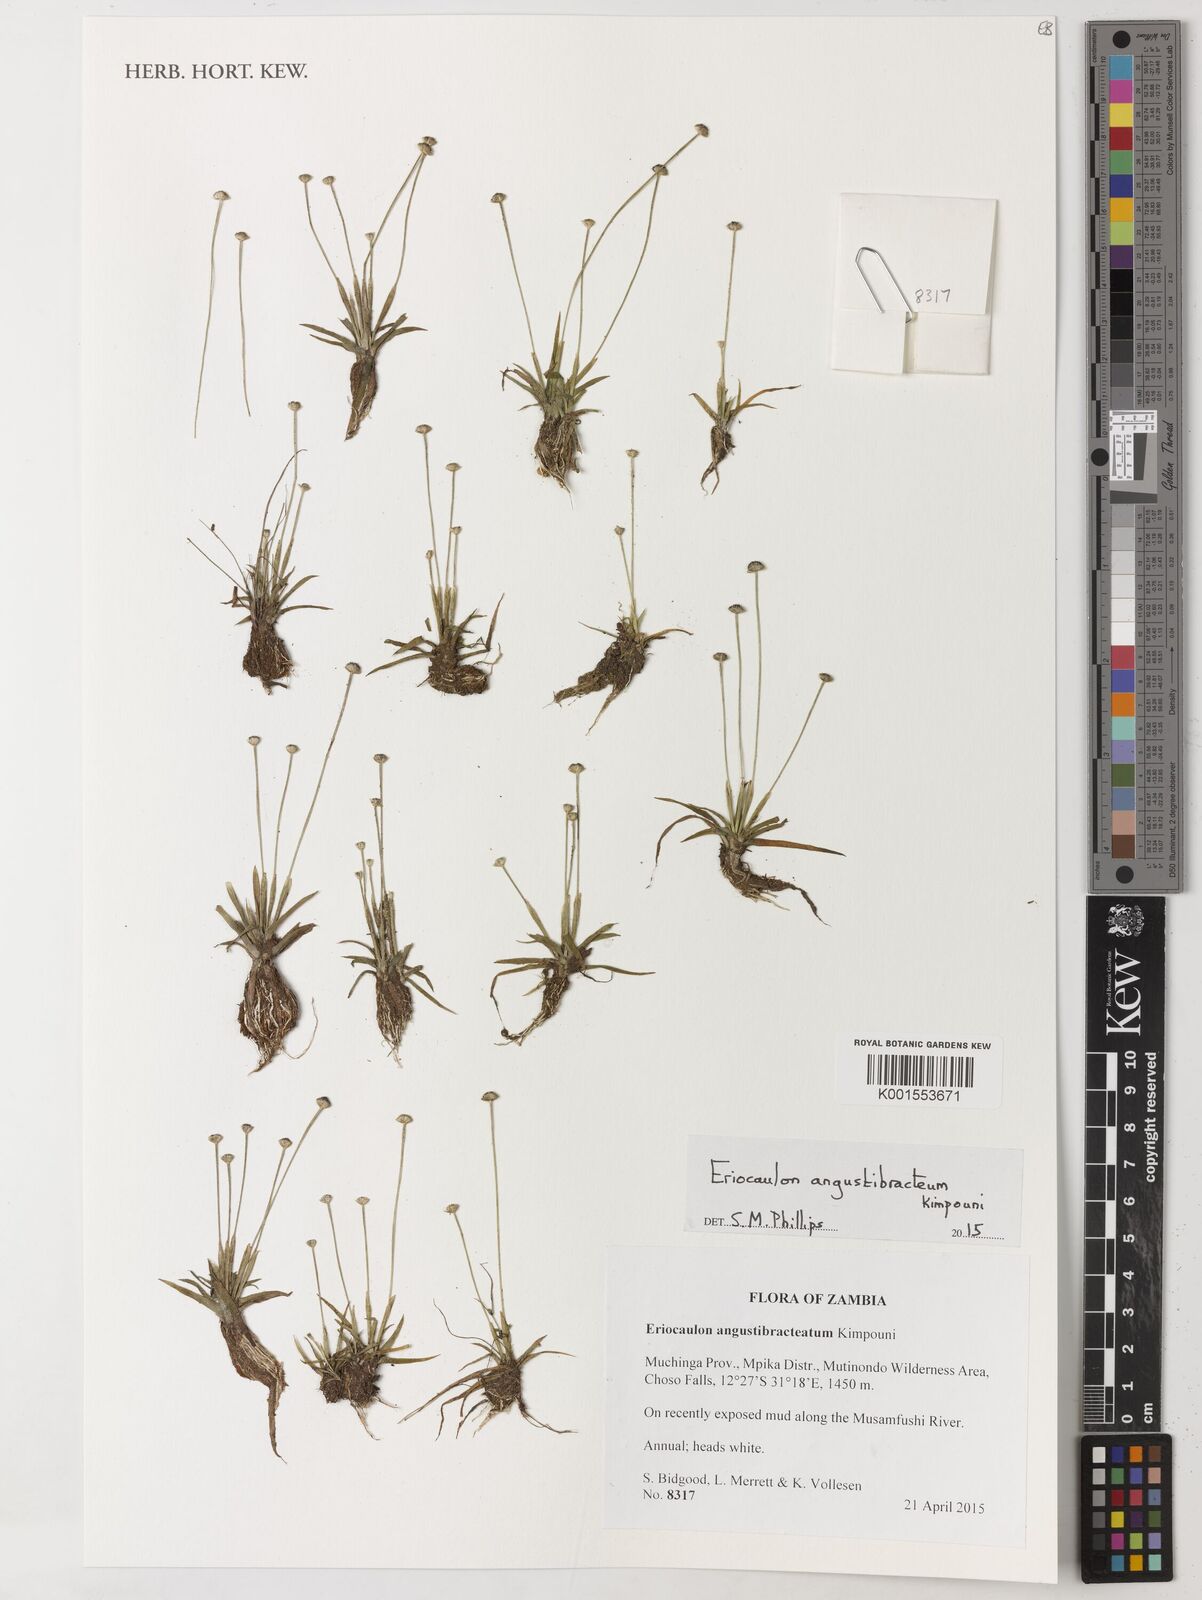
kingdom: Plantae
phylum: Tracheophyta
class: Liliopsida
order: Poales
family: Eriocaulaceae
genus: Eriocaulon
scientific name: Eriocaulon angustibracteum
